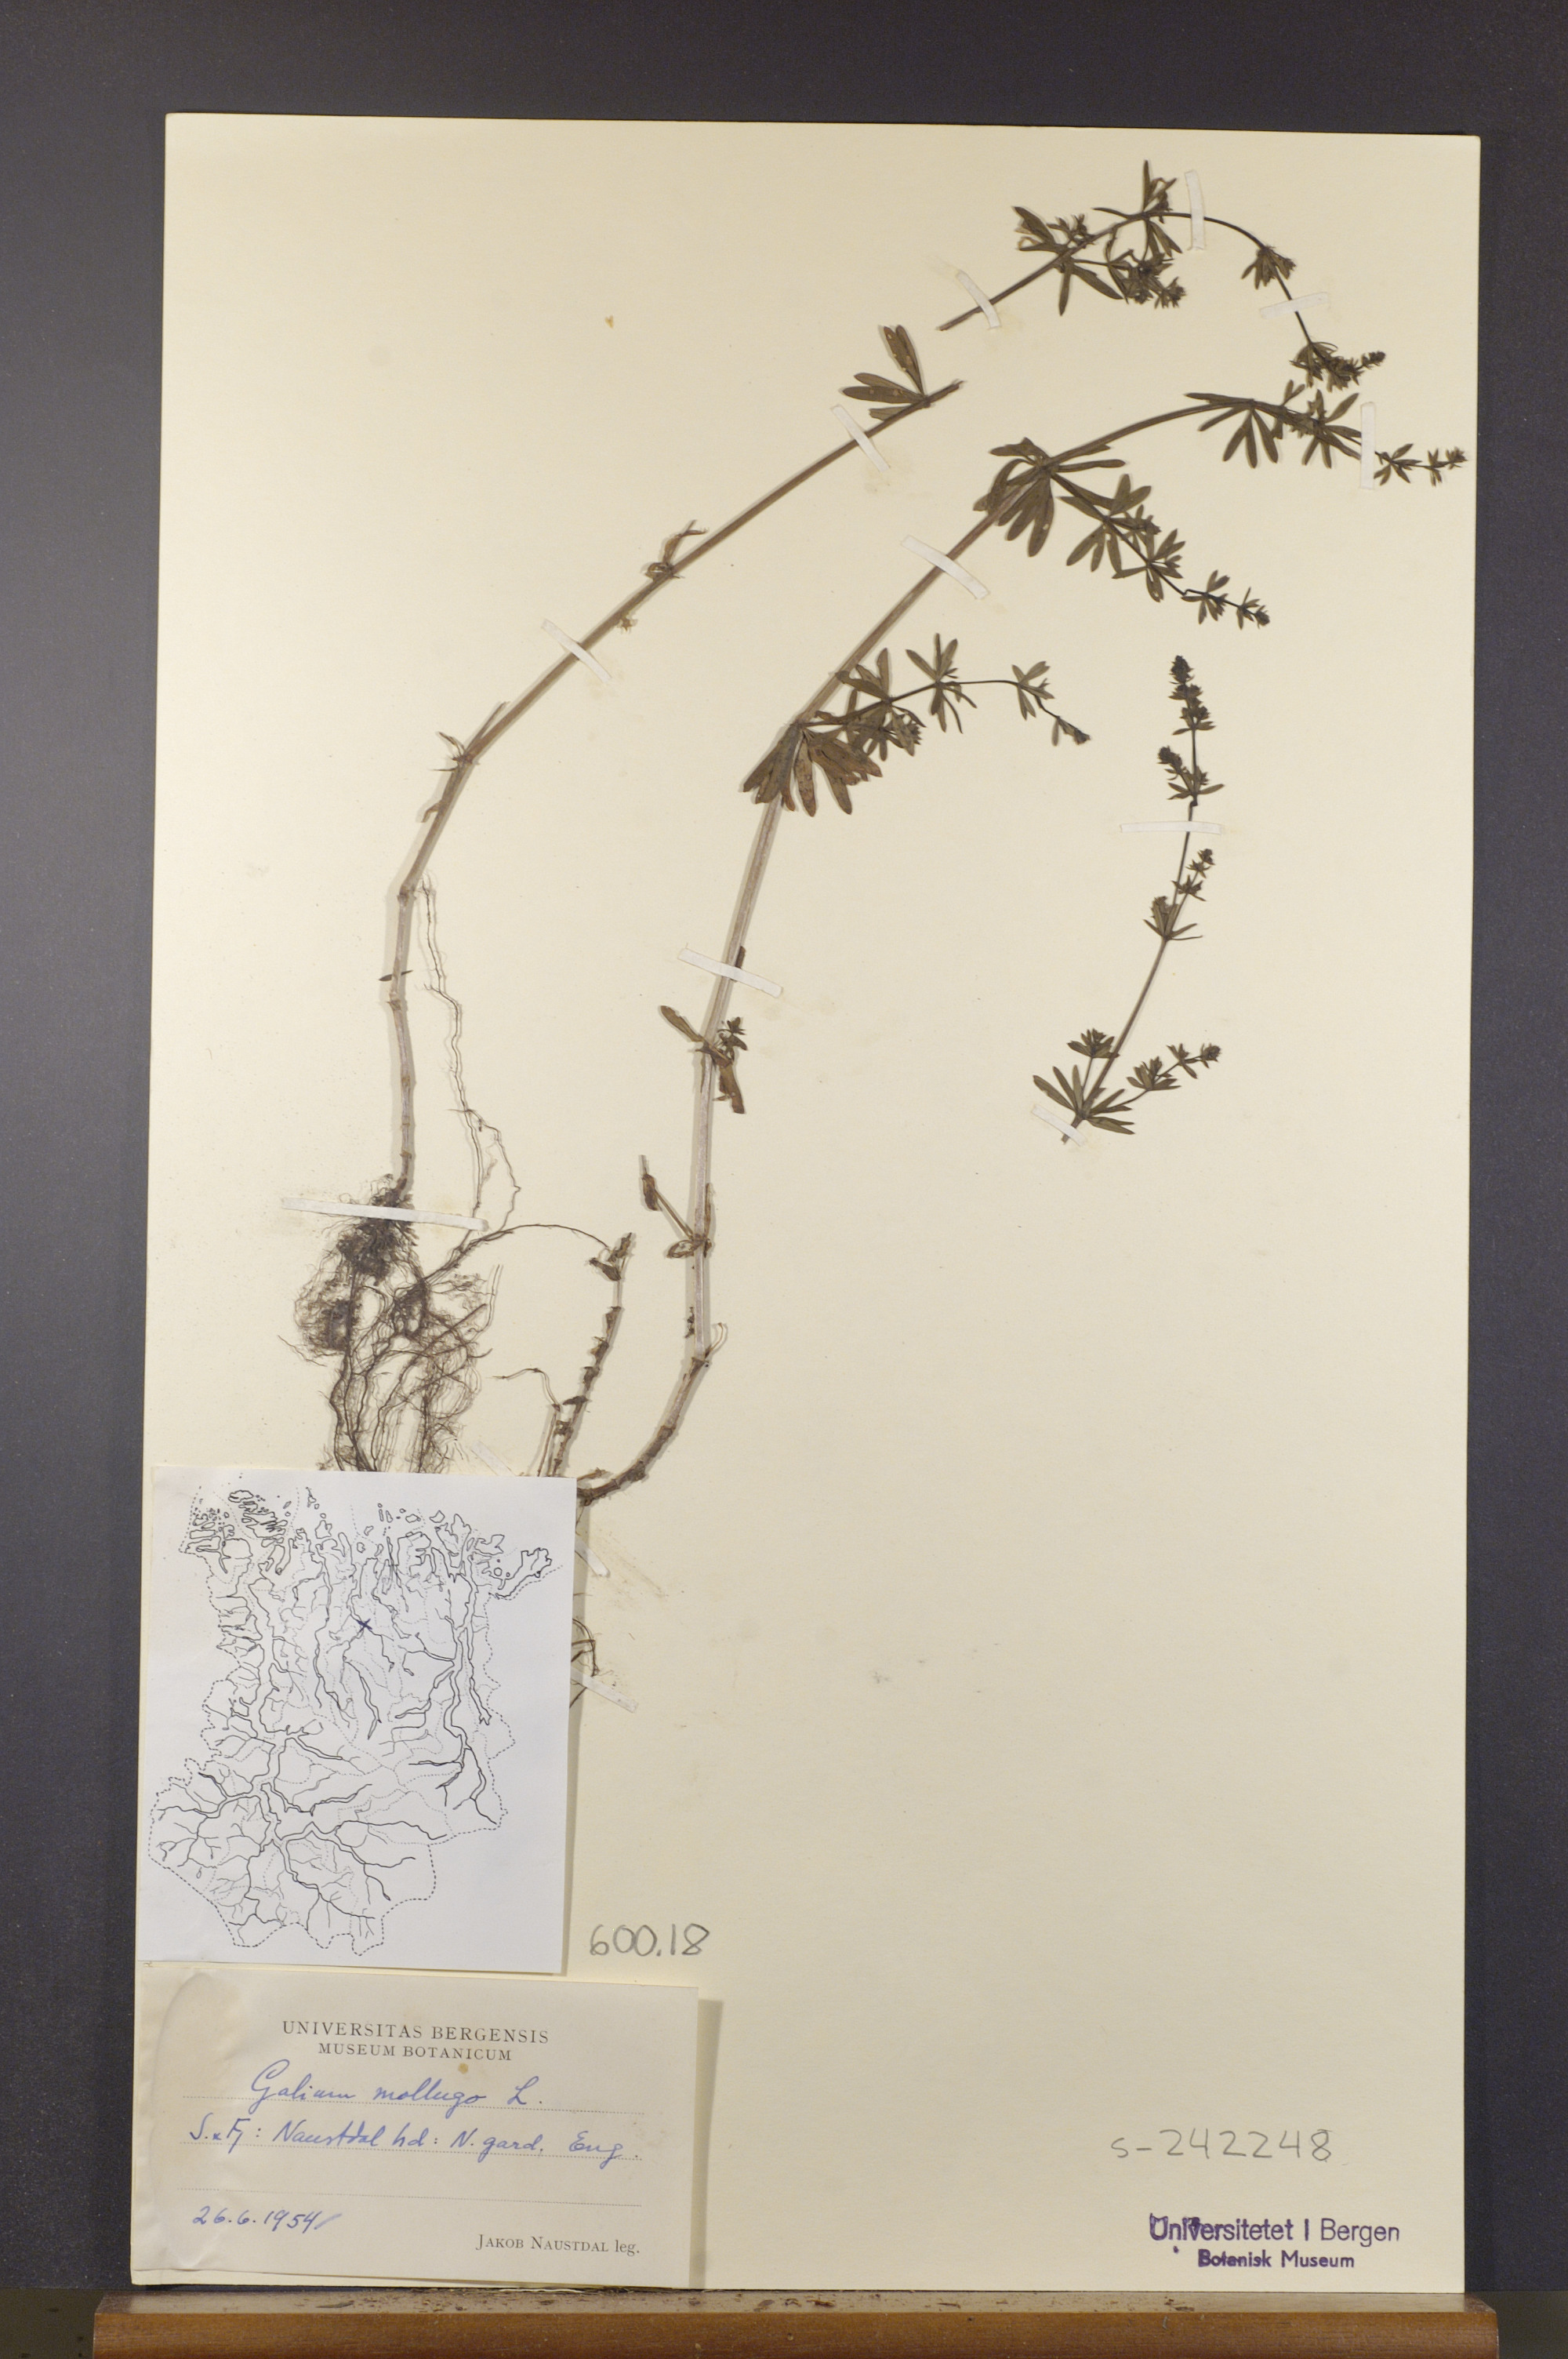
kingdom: Plantae
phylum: Tracheophyta
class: Magnoliopsida
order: Gentianales
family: Rubiaceae
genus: Galium
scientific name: Galium mollugo
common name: Hedge bedstraw
